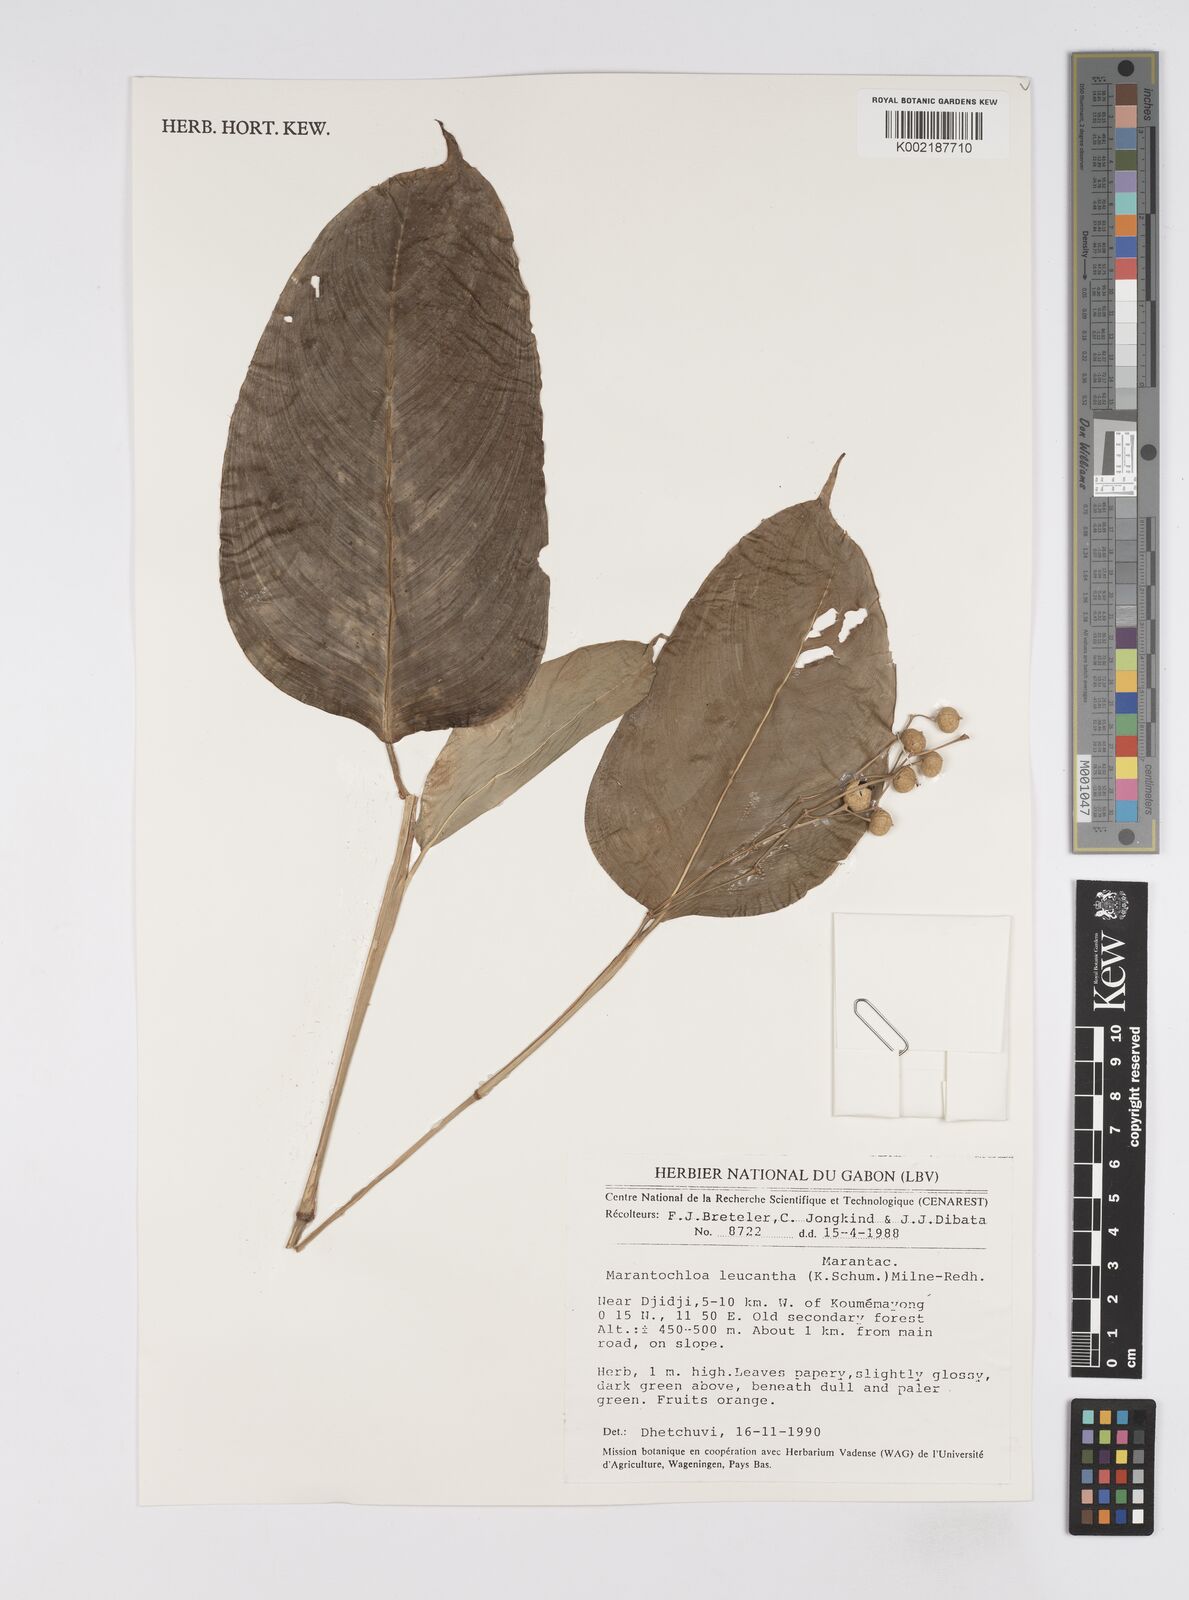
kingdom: Plantae
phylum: Tracheophyta
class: Liliopsida
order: Zingiberales
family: Marantaceae
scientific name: Marantaceae
